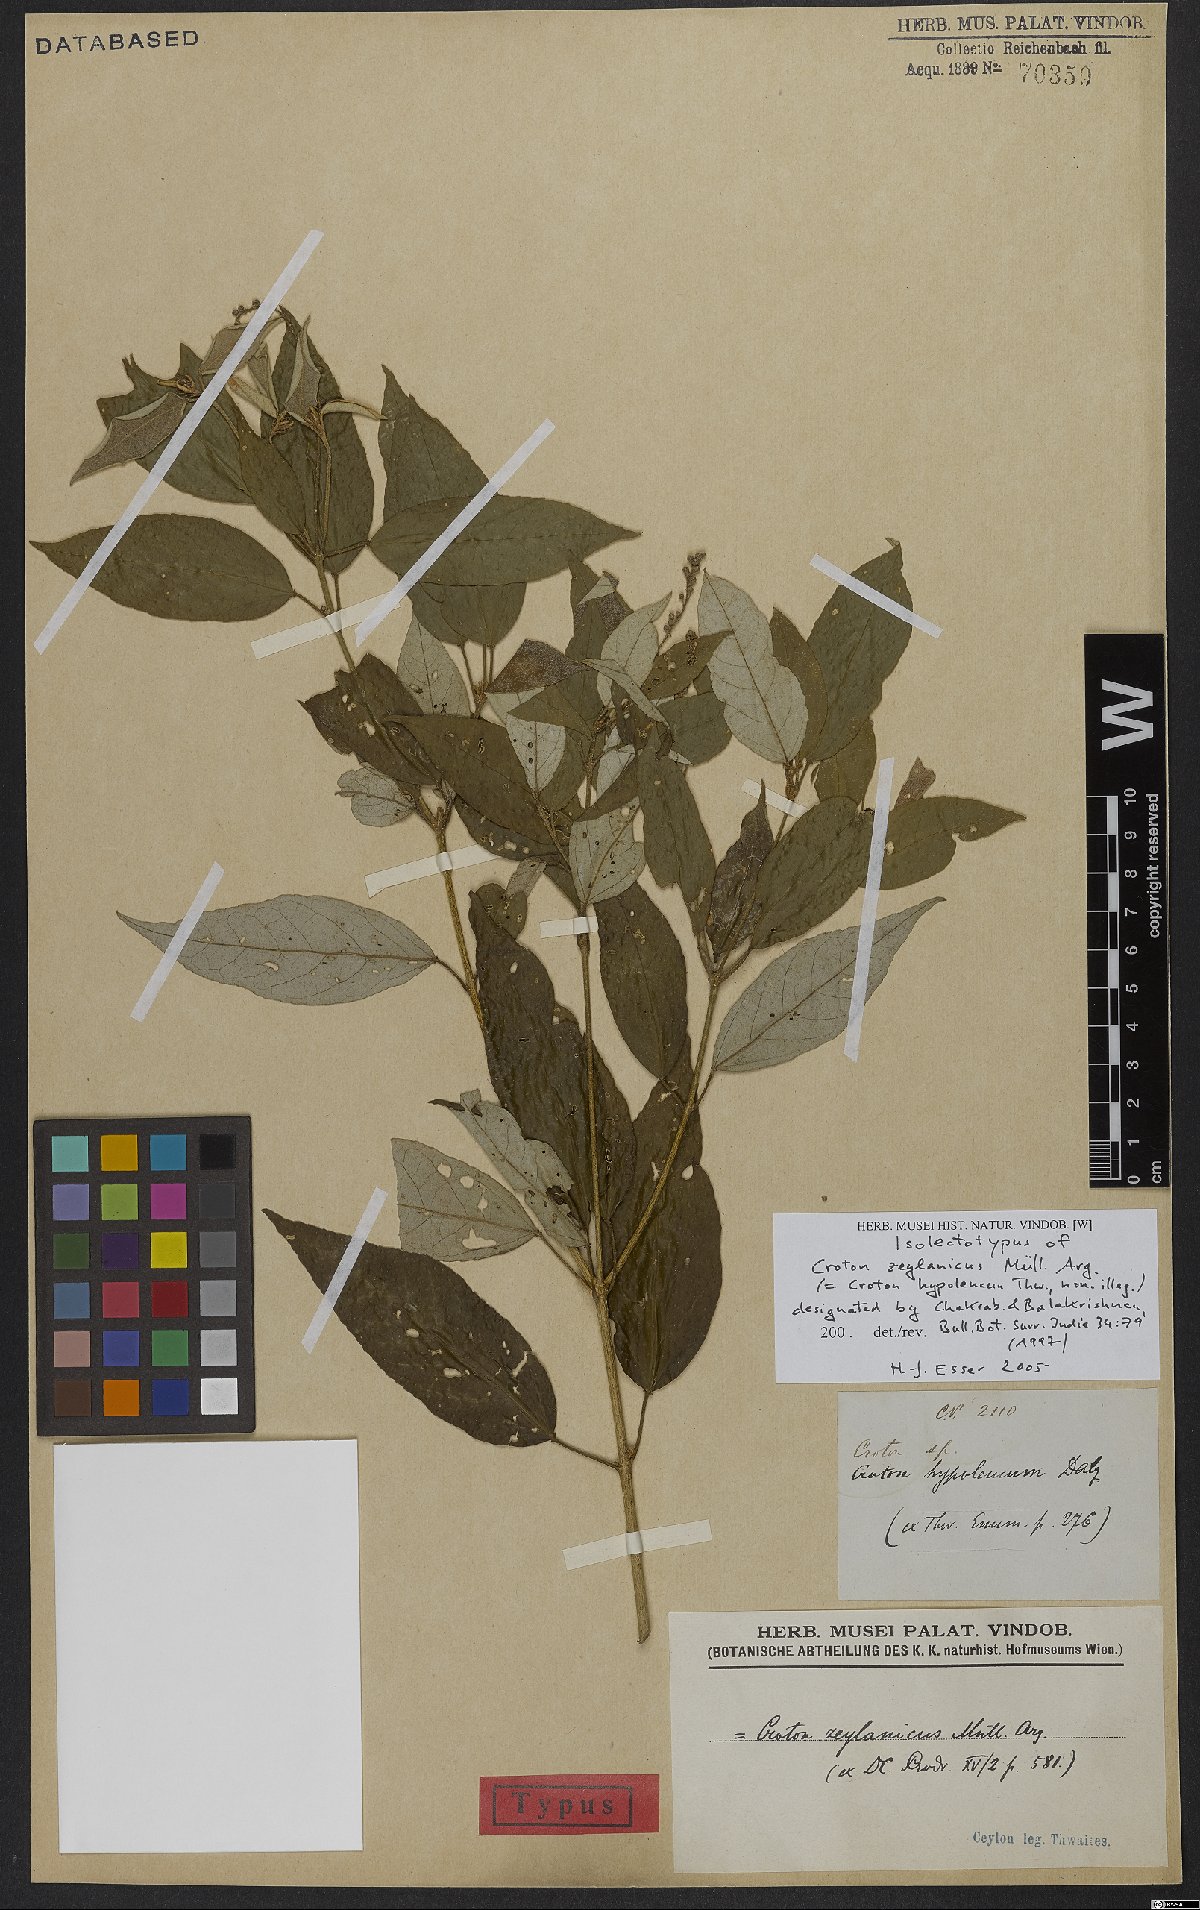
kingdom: Plantae
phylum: Tracheophyta
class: Magnoliopsida
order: Malpighiales
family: Euphorbiaceae
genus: Croton
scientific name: Croton zeylanicus
